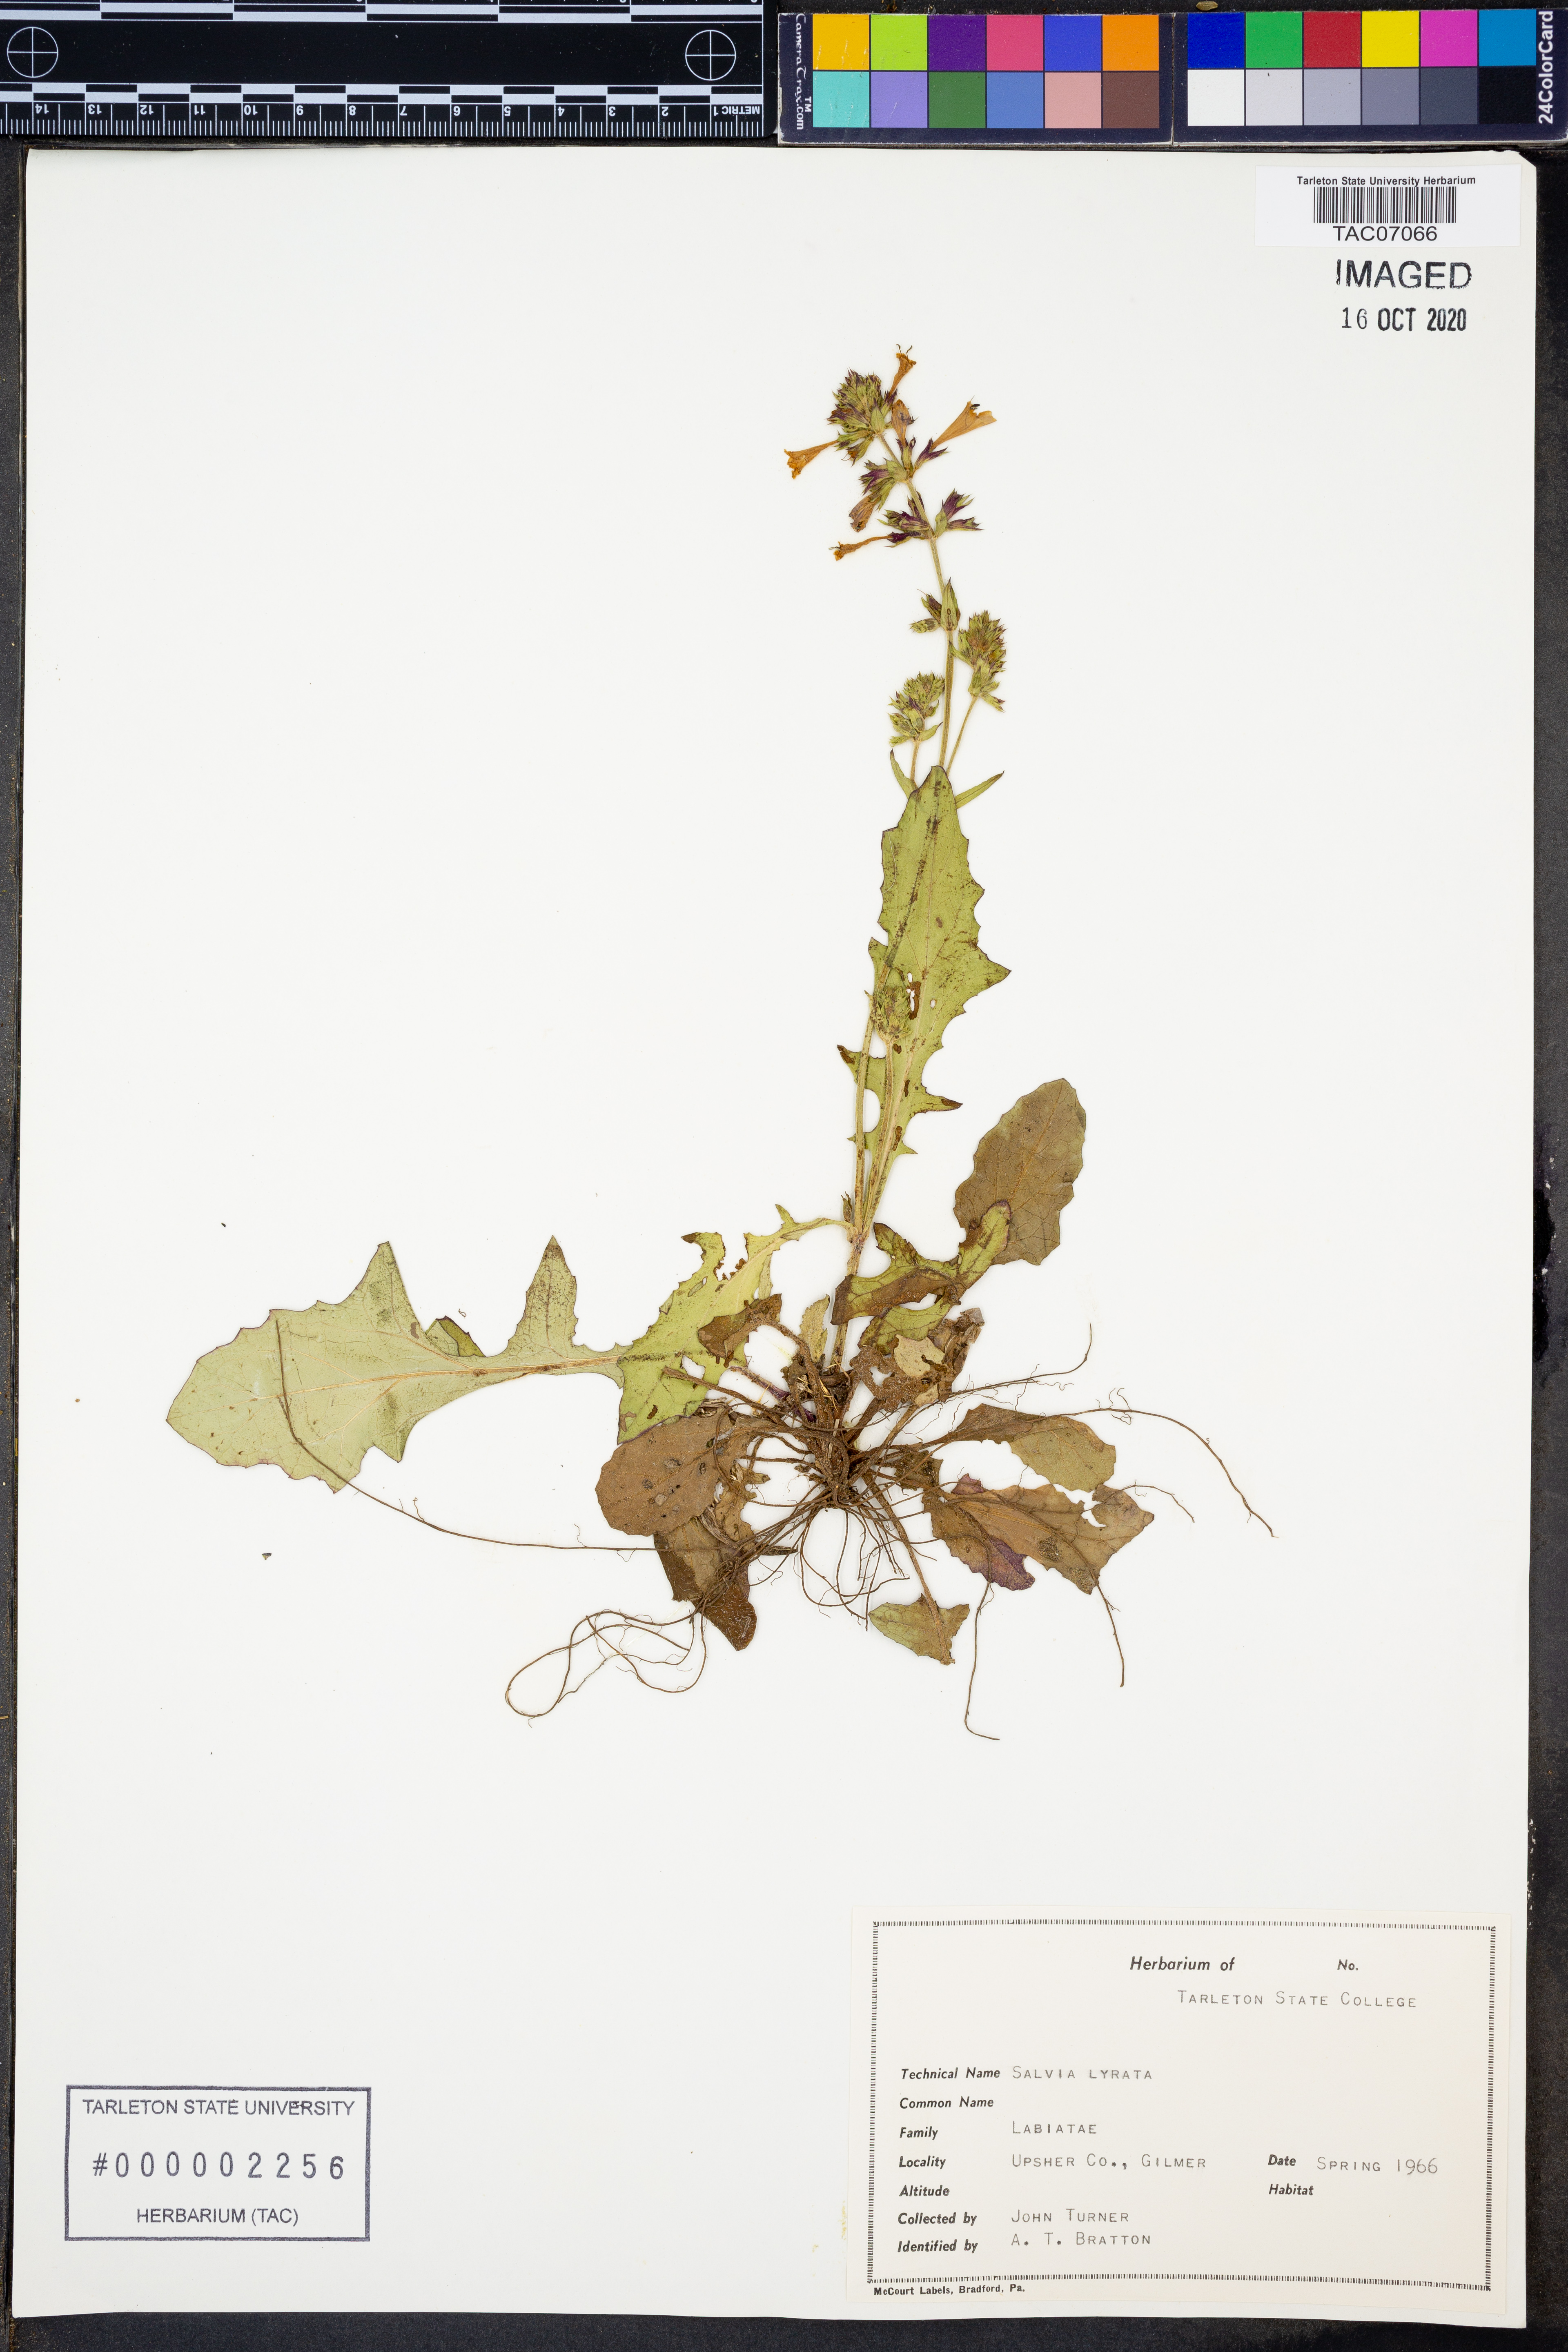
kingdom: Plantae
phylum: Tracheophyta
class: Magnoliopsida
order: Lamiales
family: Lamiaceae
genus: Salvia
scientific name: Salvia lyrata
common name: Cancerweed
